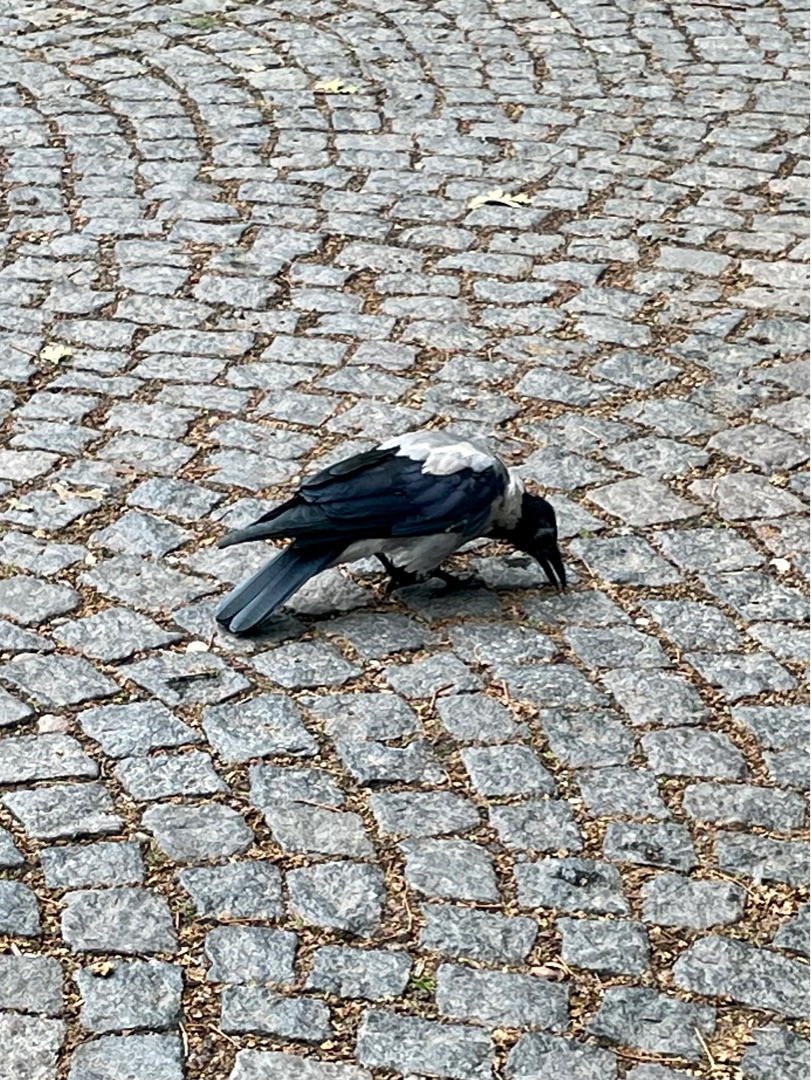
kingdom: Animalia
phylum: Chordata
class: Aves
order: Passeriformes
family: Corvidae
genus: Corvus
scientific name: Corvus cornix
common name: Gråkrage
